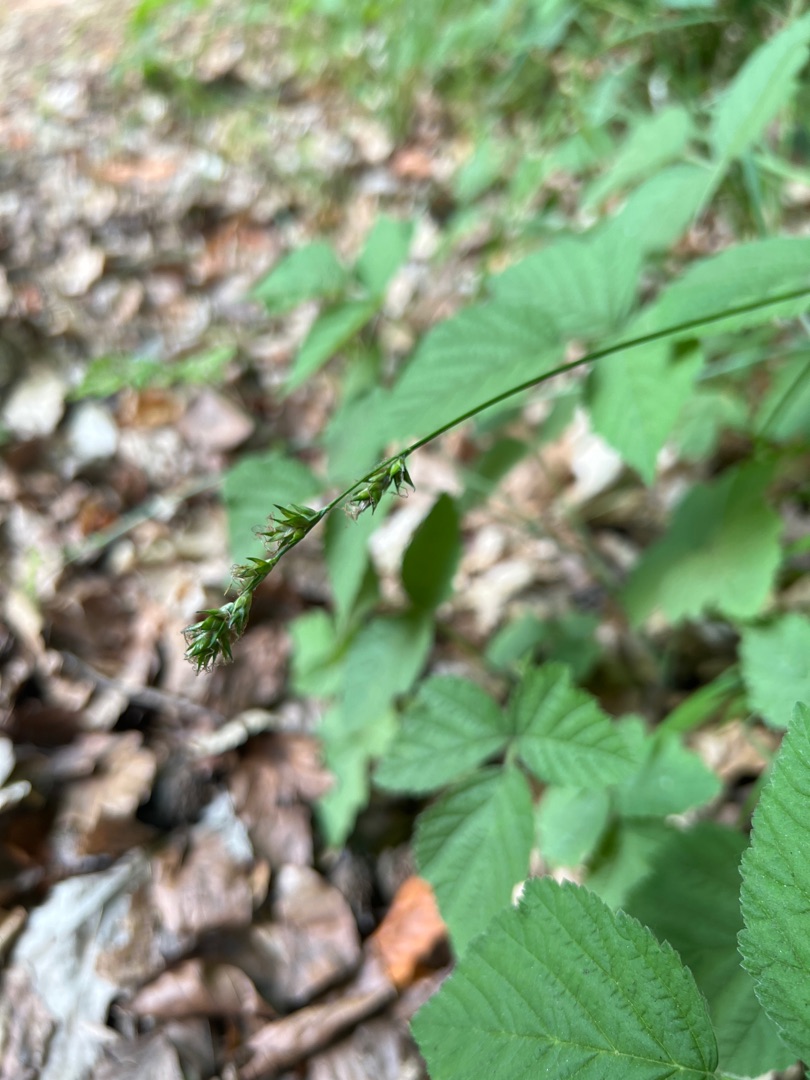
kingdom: Plantae
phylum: Tracheophyta
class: Liliopsida
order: Poales
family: Cyperaceae
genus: Carex
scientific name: Carex leersii
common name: Mellembrudt star (underart)
